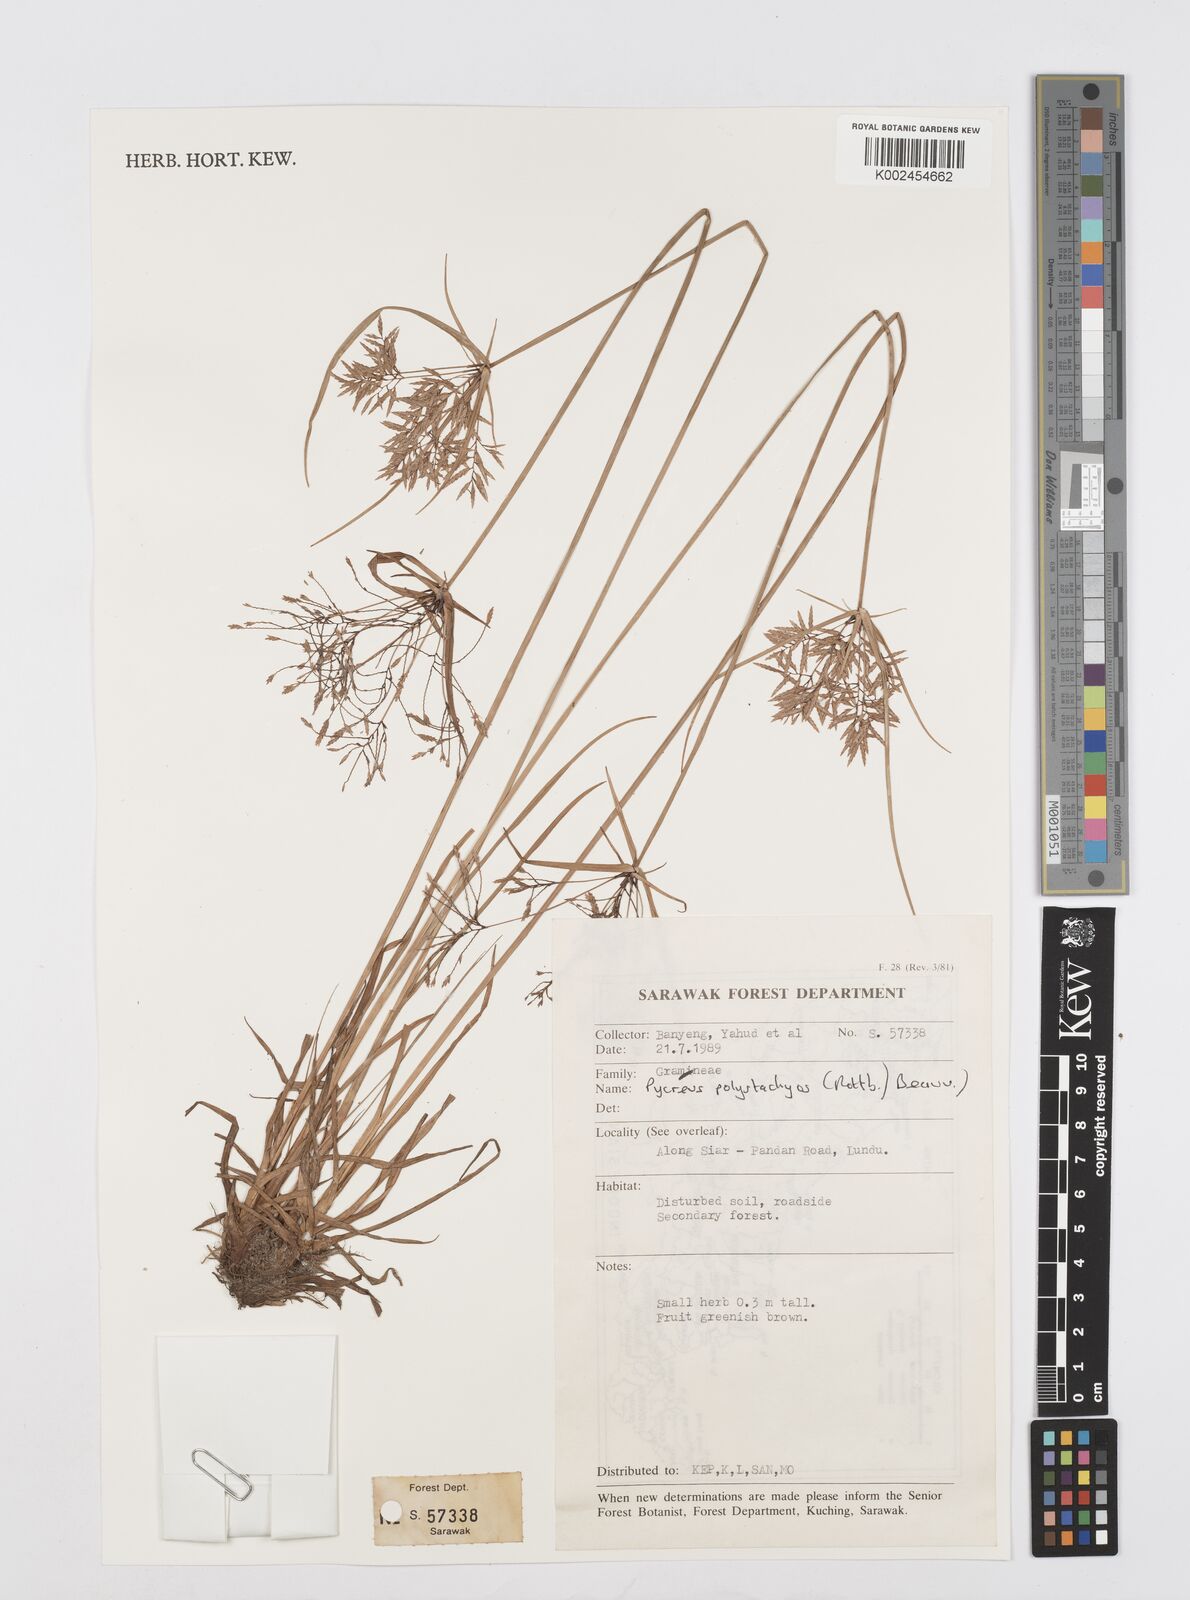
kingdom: Plantae
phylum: Tracheophyta
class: Liliopsida
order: Poales
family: Cyperaceae
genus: Cyperus
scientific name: Cyperus polystachyos
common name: Bunchy flat sedge
